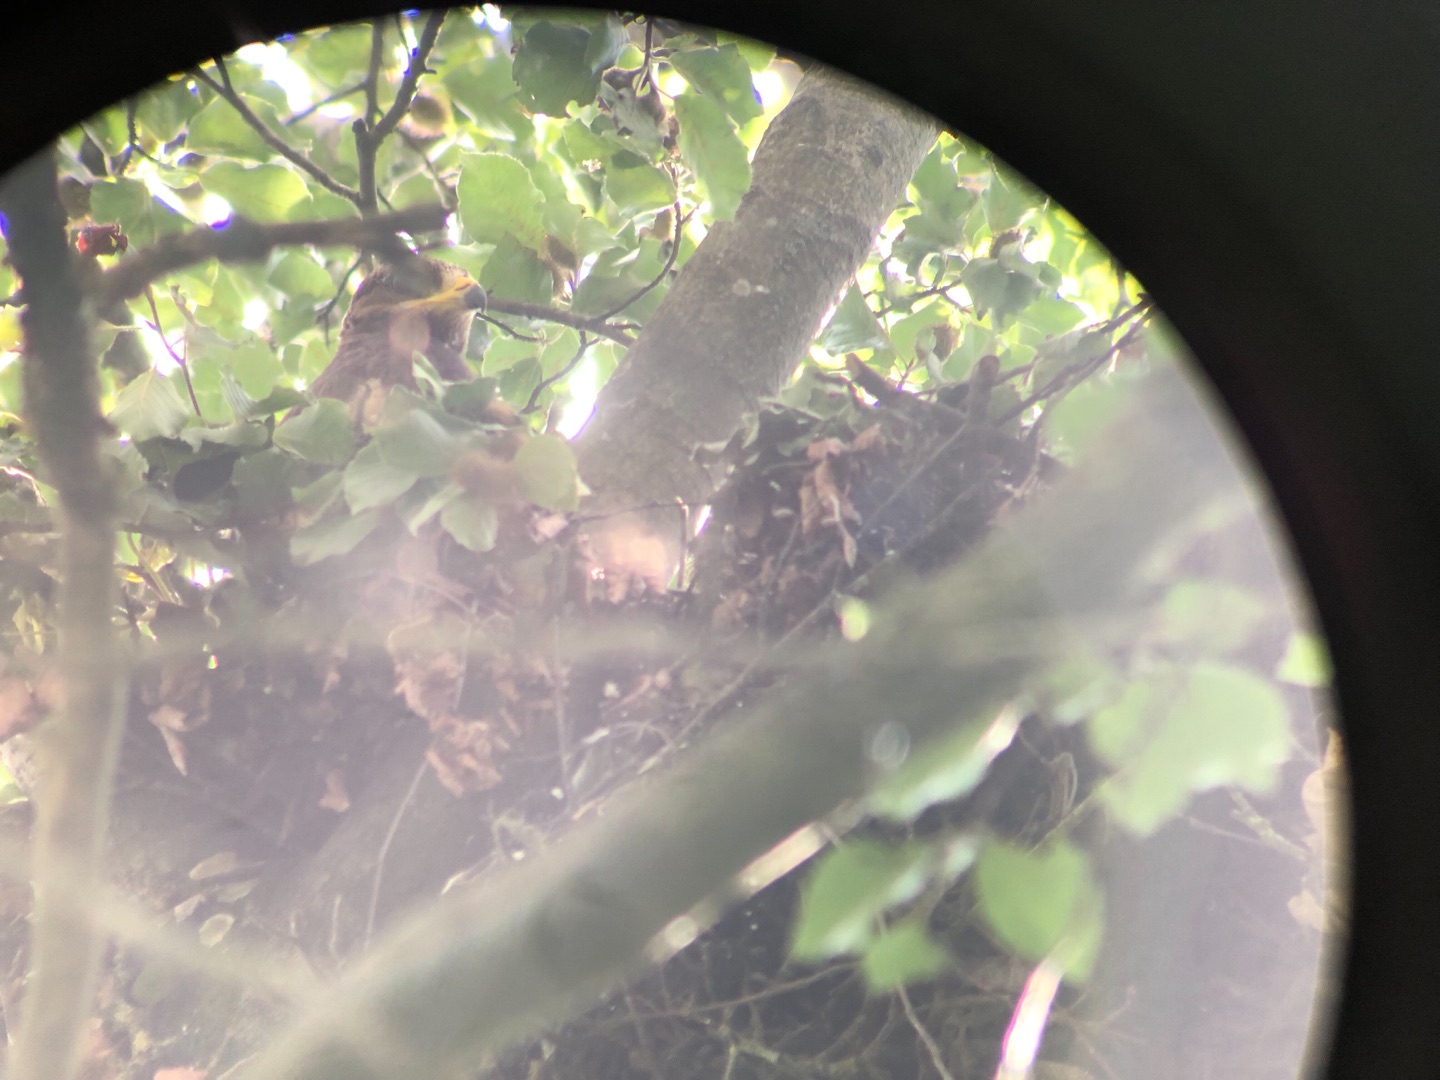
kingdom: Animalia
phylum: Chordata
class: Aves
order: Accipitriformes
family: Accipitridae
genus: Pernis
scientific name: Pernis apivorus
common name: Hvepsevåge
